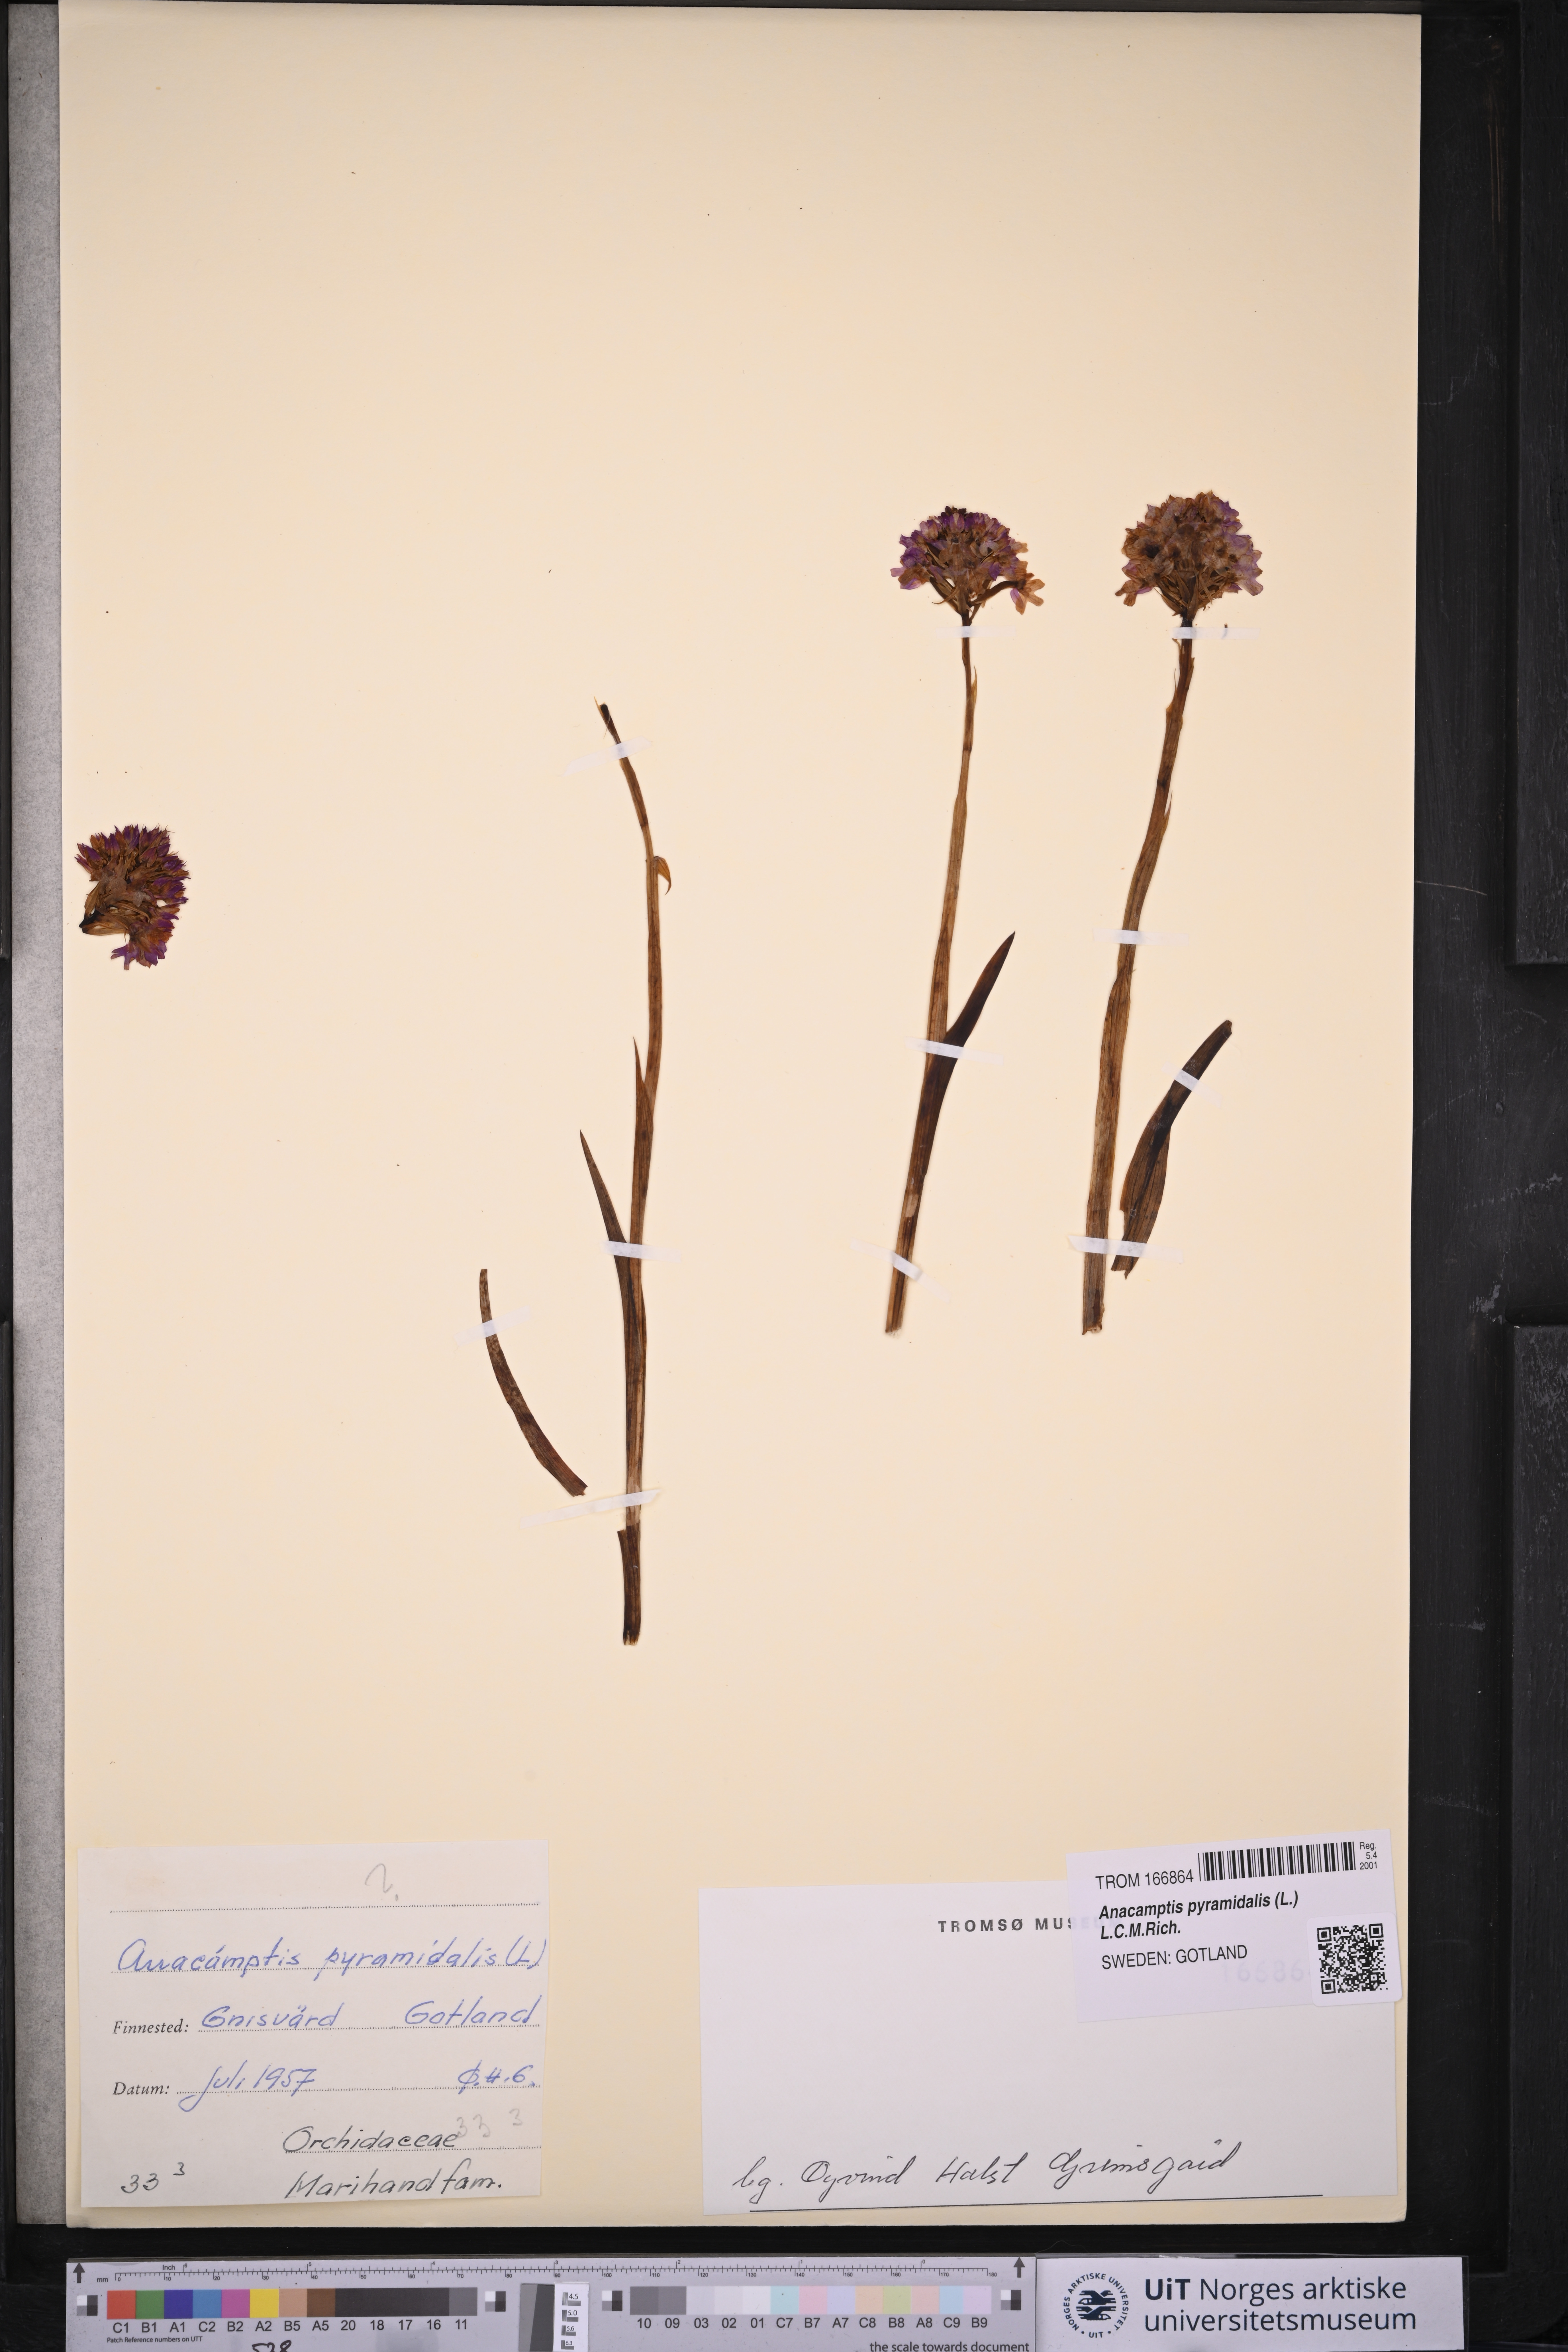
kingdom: Plantae
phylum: Tracheophyta
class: Liliopsida
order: Asparagales
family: Orchidaceae
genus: Anacamptis
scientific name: Anacamptis pyramidalis
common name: Pyramidal orchid
